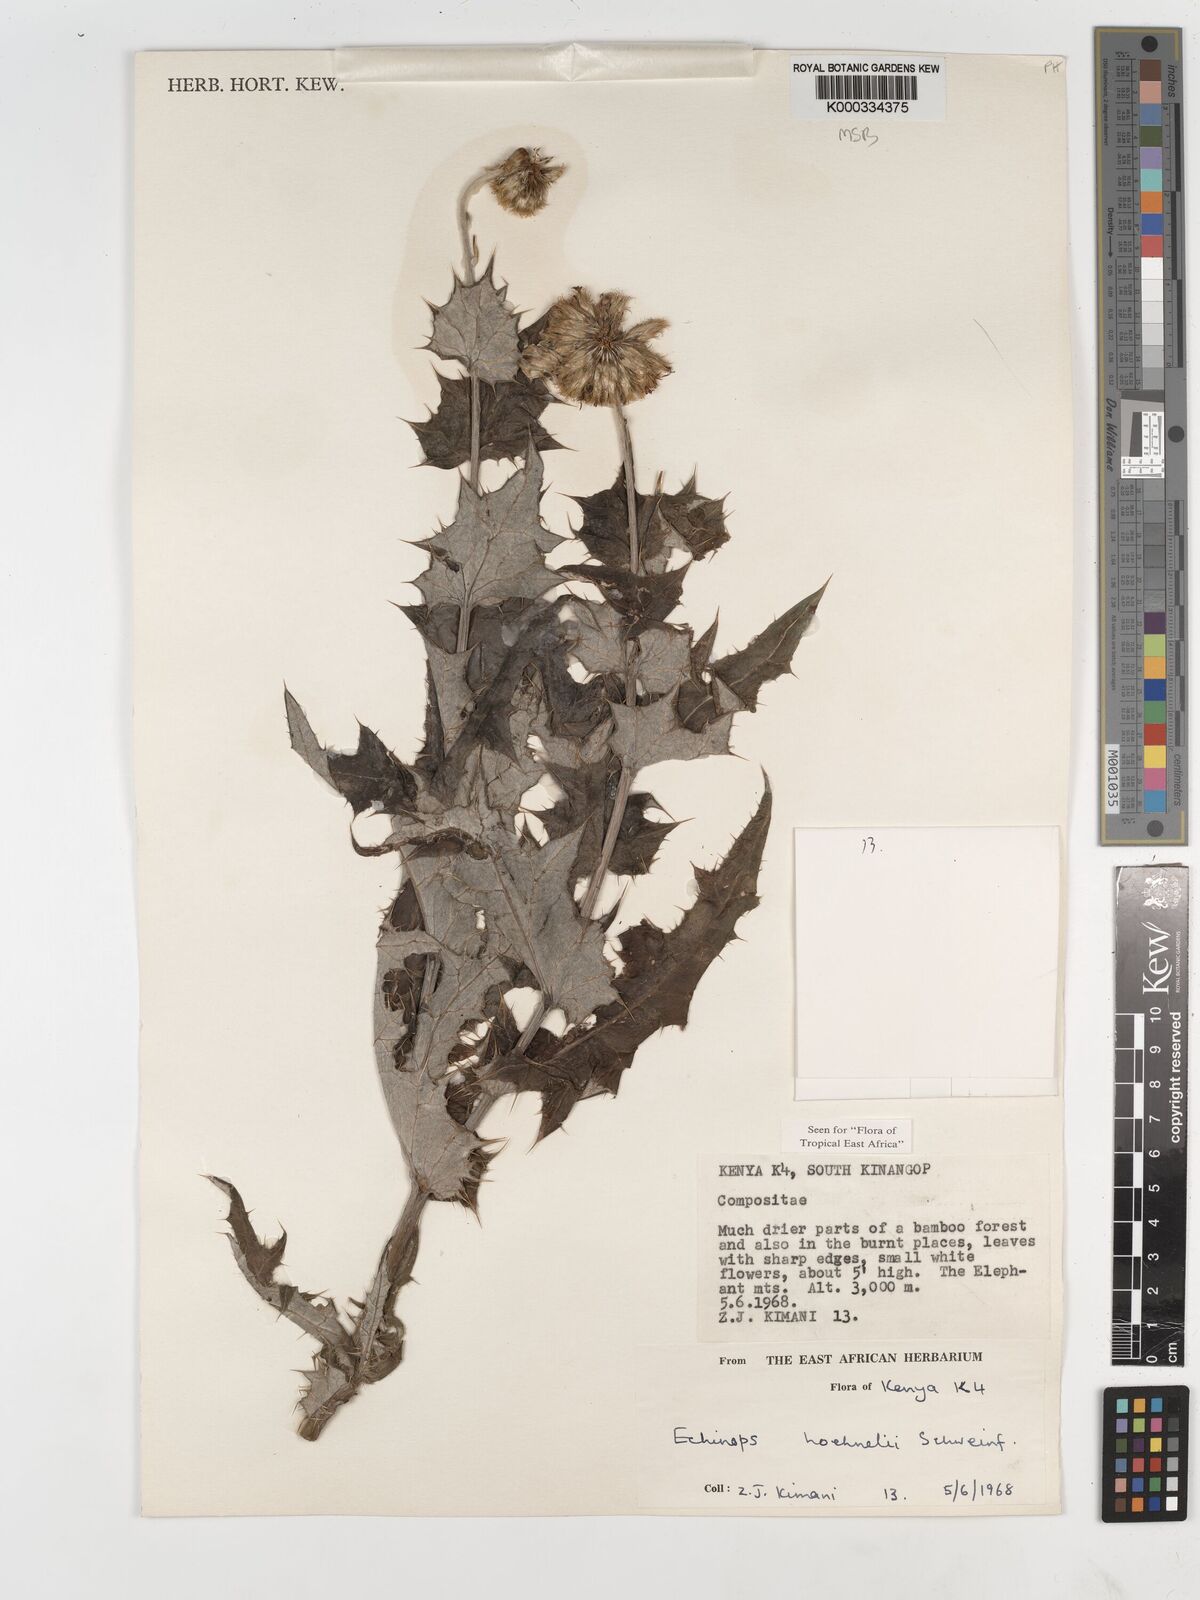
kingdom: Plantae
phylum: Tracheophyta
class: Magnoliopsida
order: Asterales
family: Asteraceae
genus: Echinops
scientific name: Echinops hoehnelii
